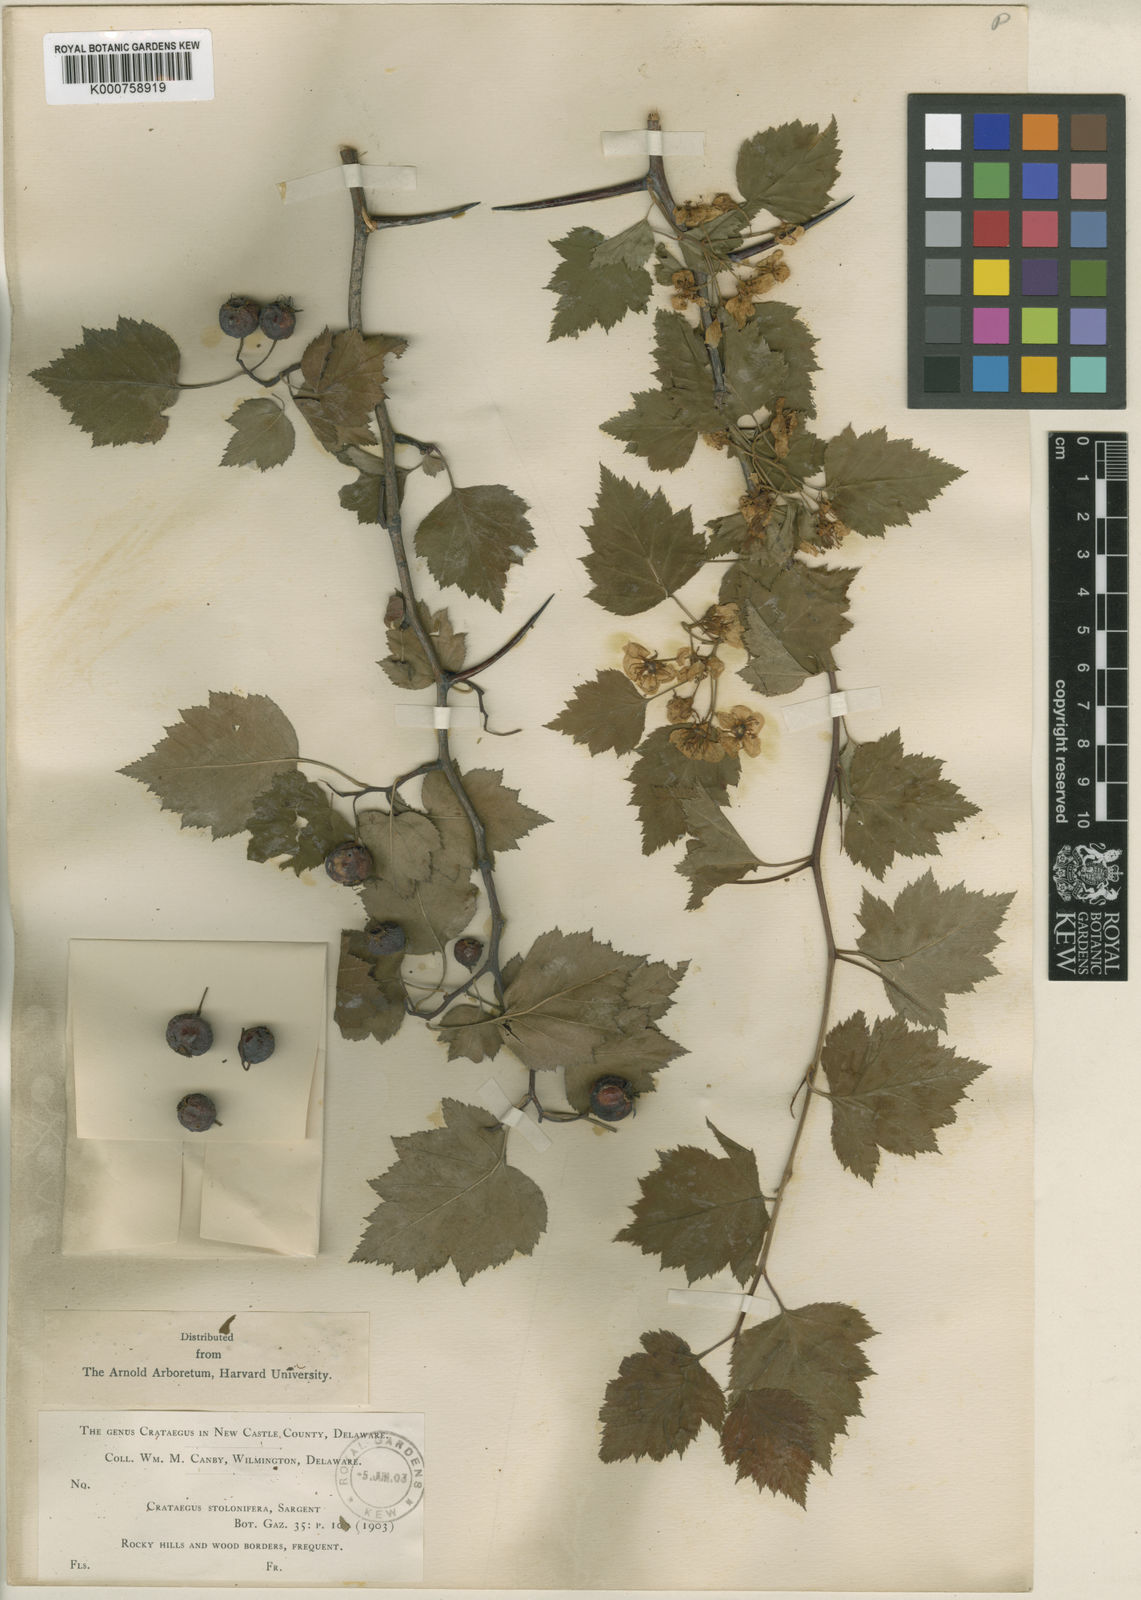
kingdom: Plantae
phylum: Tracheophyta
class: Magnoliopsida
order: Rosales
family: Rosaceae
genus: Crataegus
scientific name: Crataegus crus-galli
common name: Cockspurthorn
